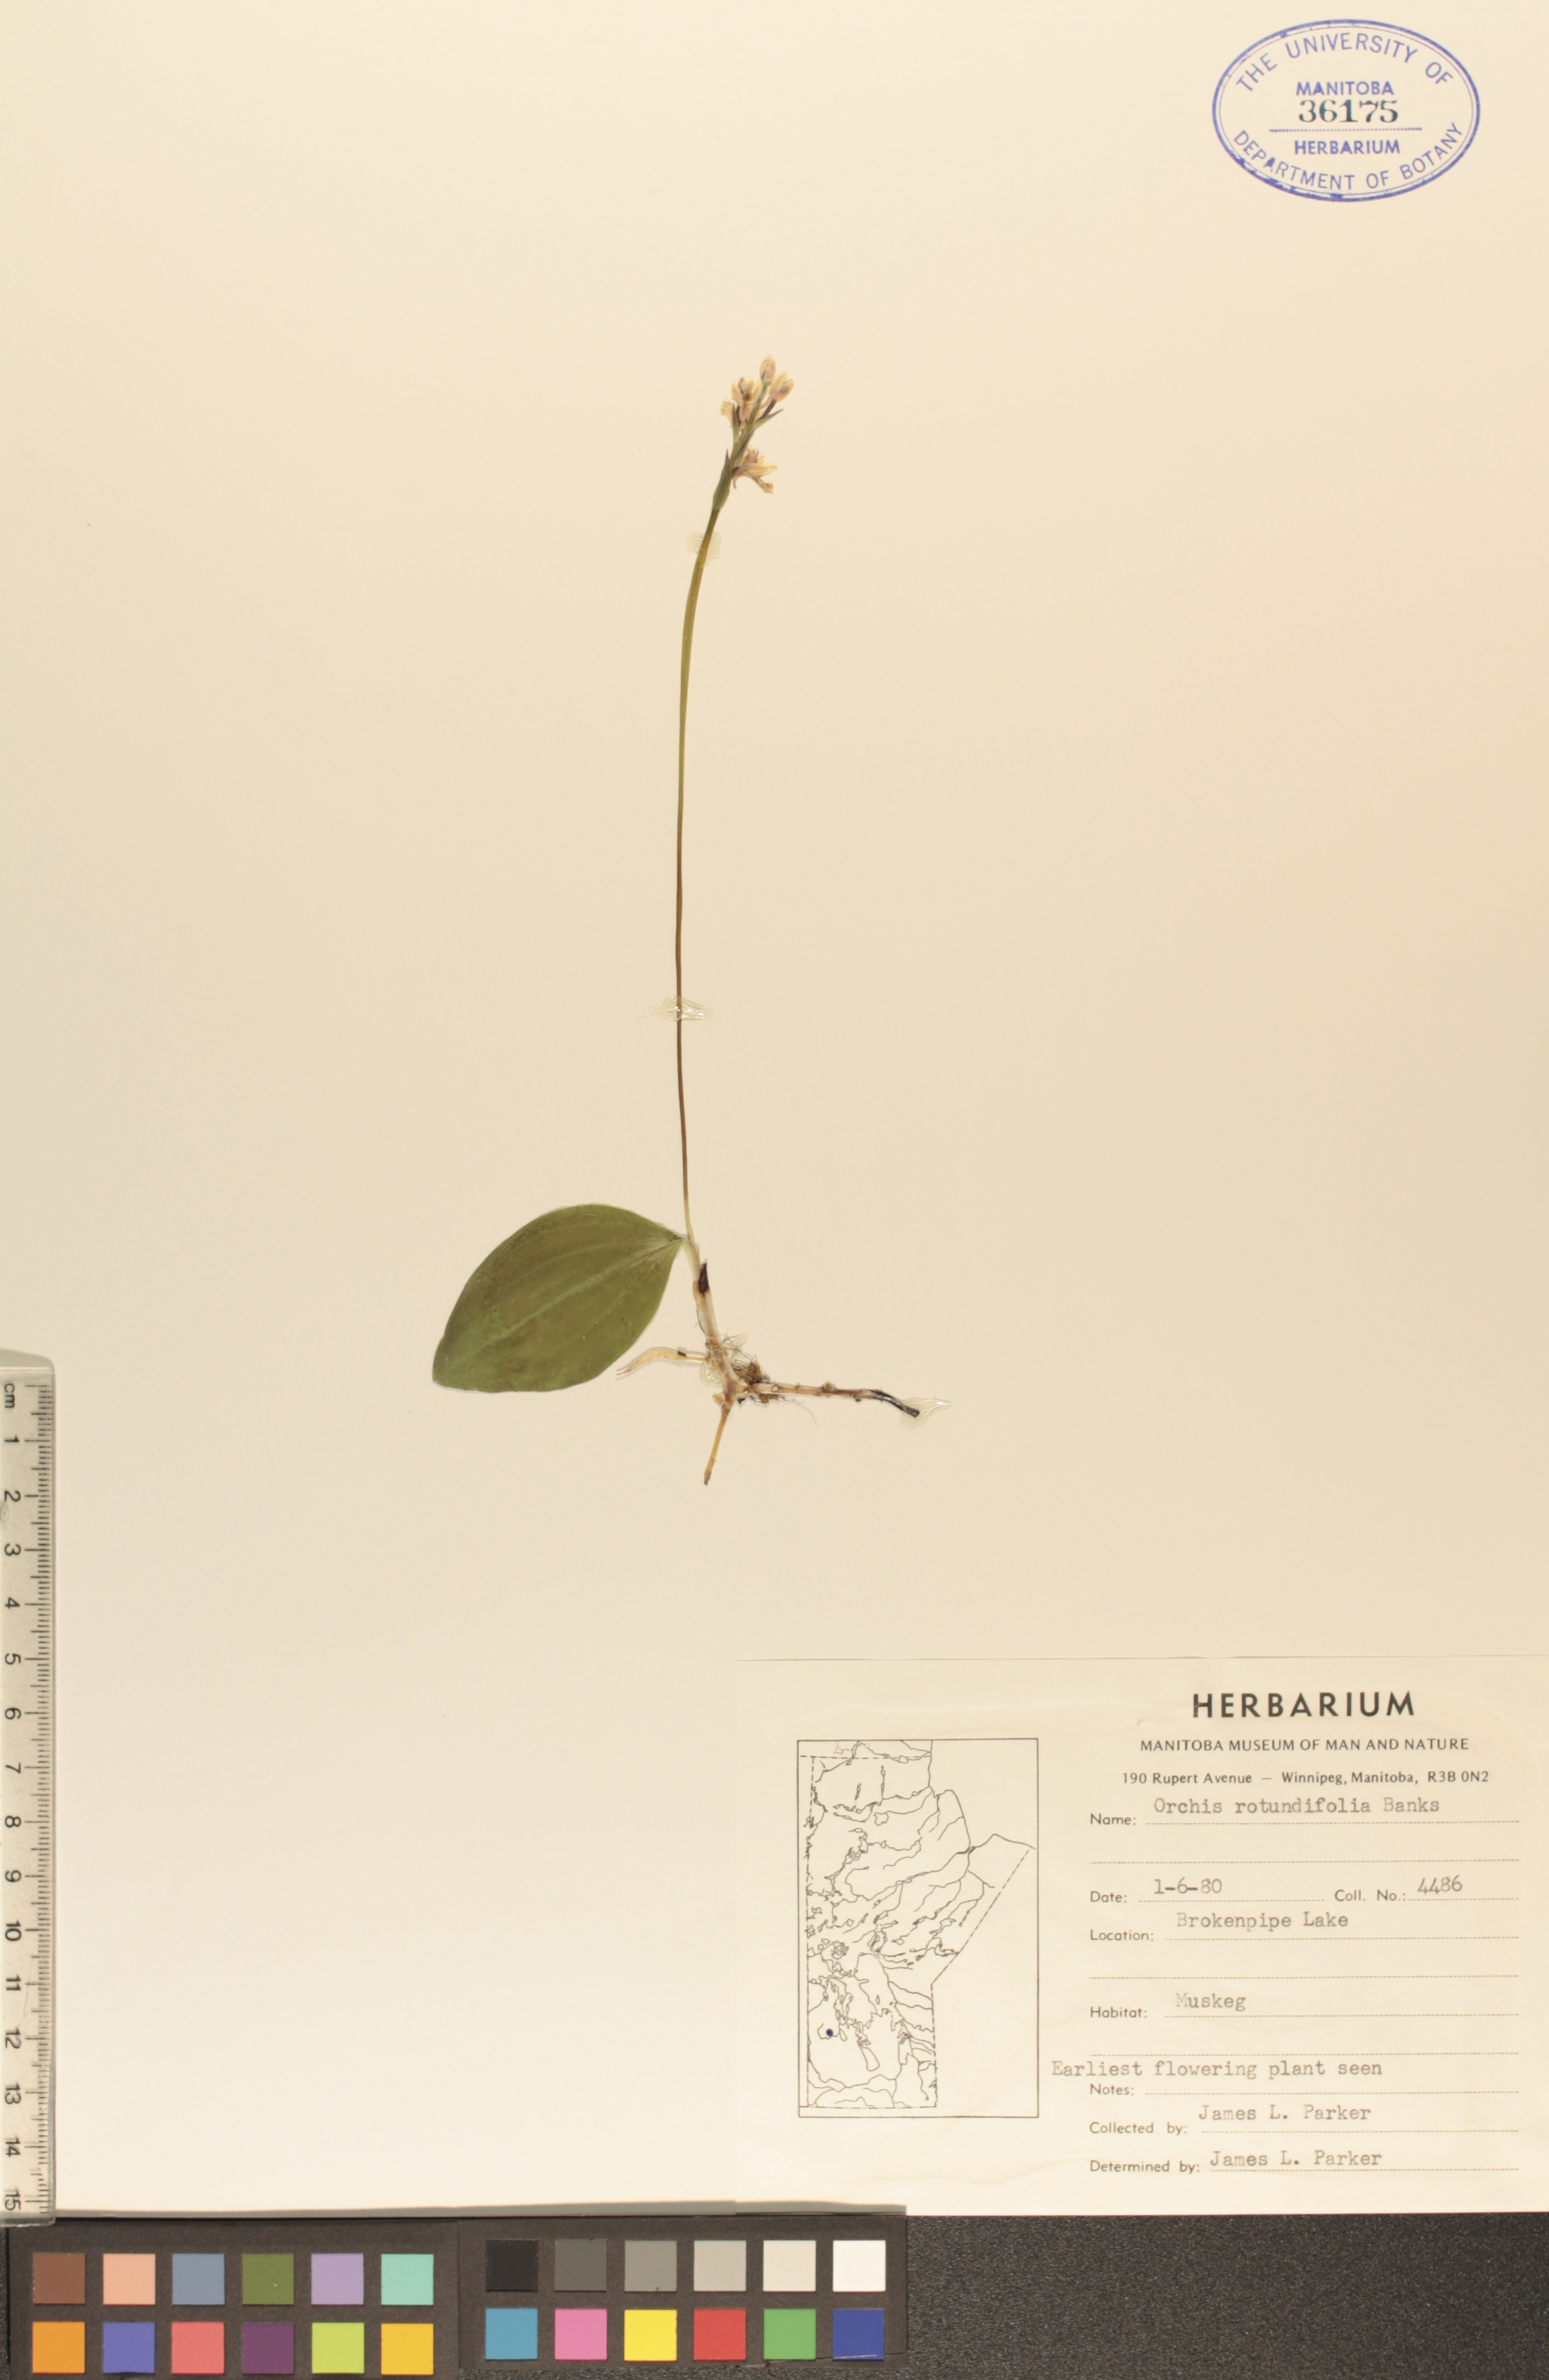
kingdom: Plantae
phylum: Tracheophyta
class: Liliopsida
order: Asparagales
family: Orchidaceae
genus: Galearis
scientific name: Galearis rotundifolia
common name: One-leaved orchis
